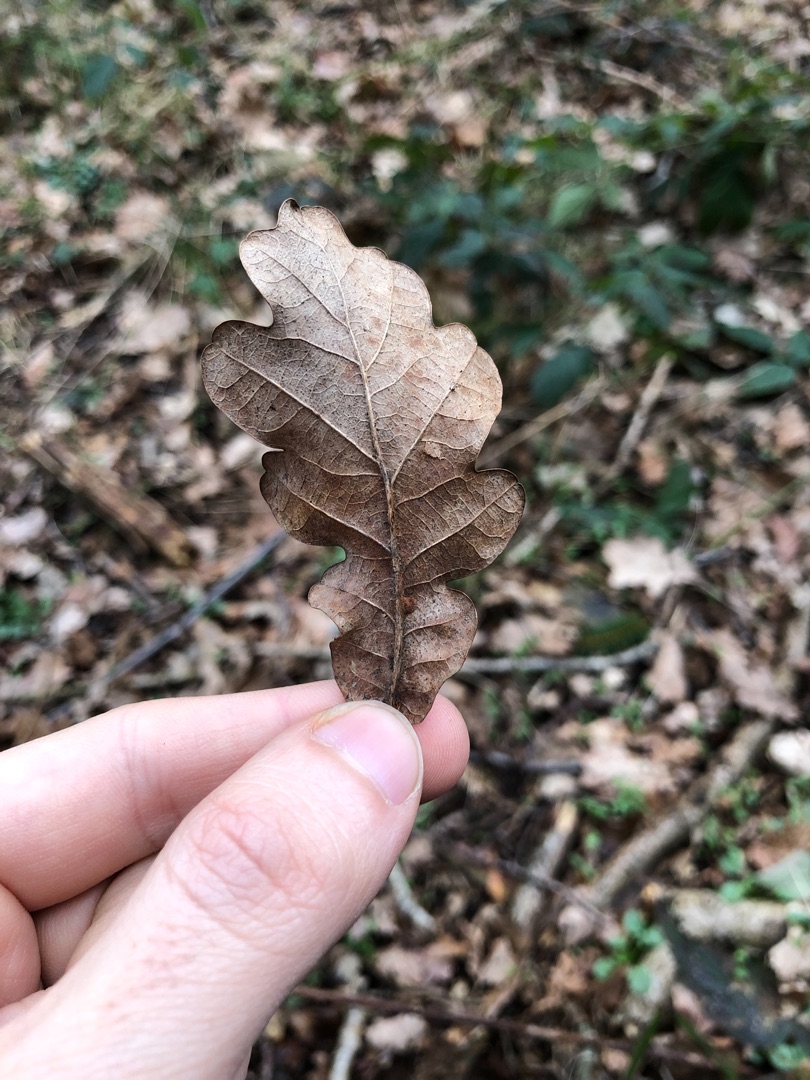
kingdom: Plantae
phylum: Tracheophyta
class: Magnoliopsida
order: Fagales
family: Fagaceae
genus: Quercus
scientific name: Quercus robur
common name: Stilk-eg/almindelig eg
